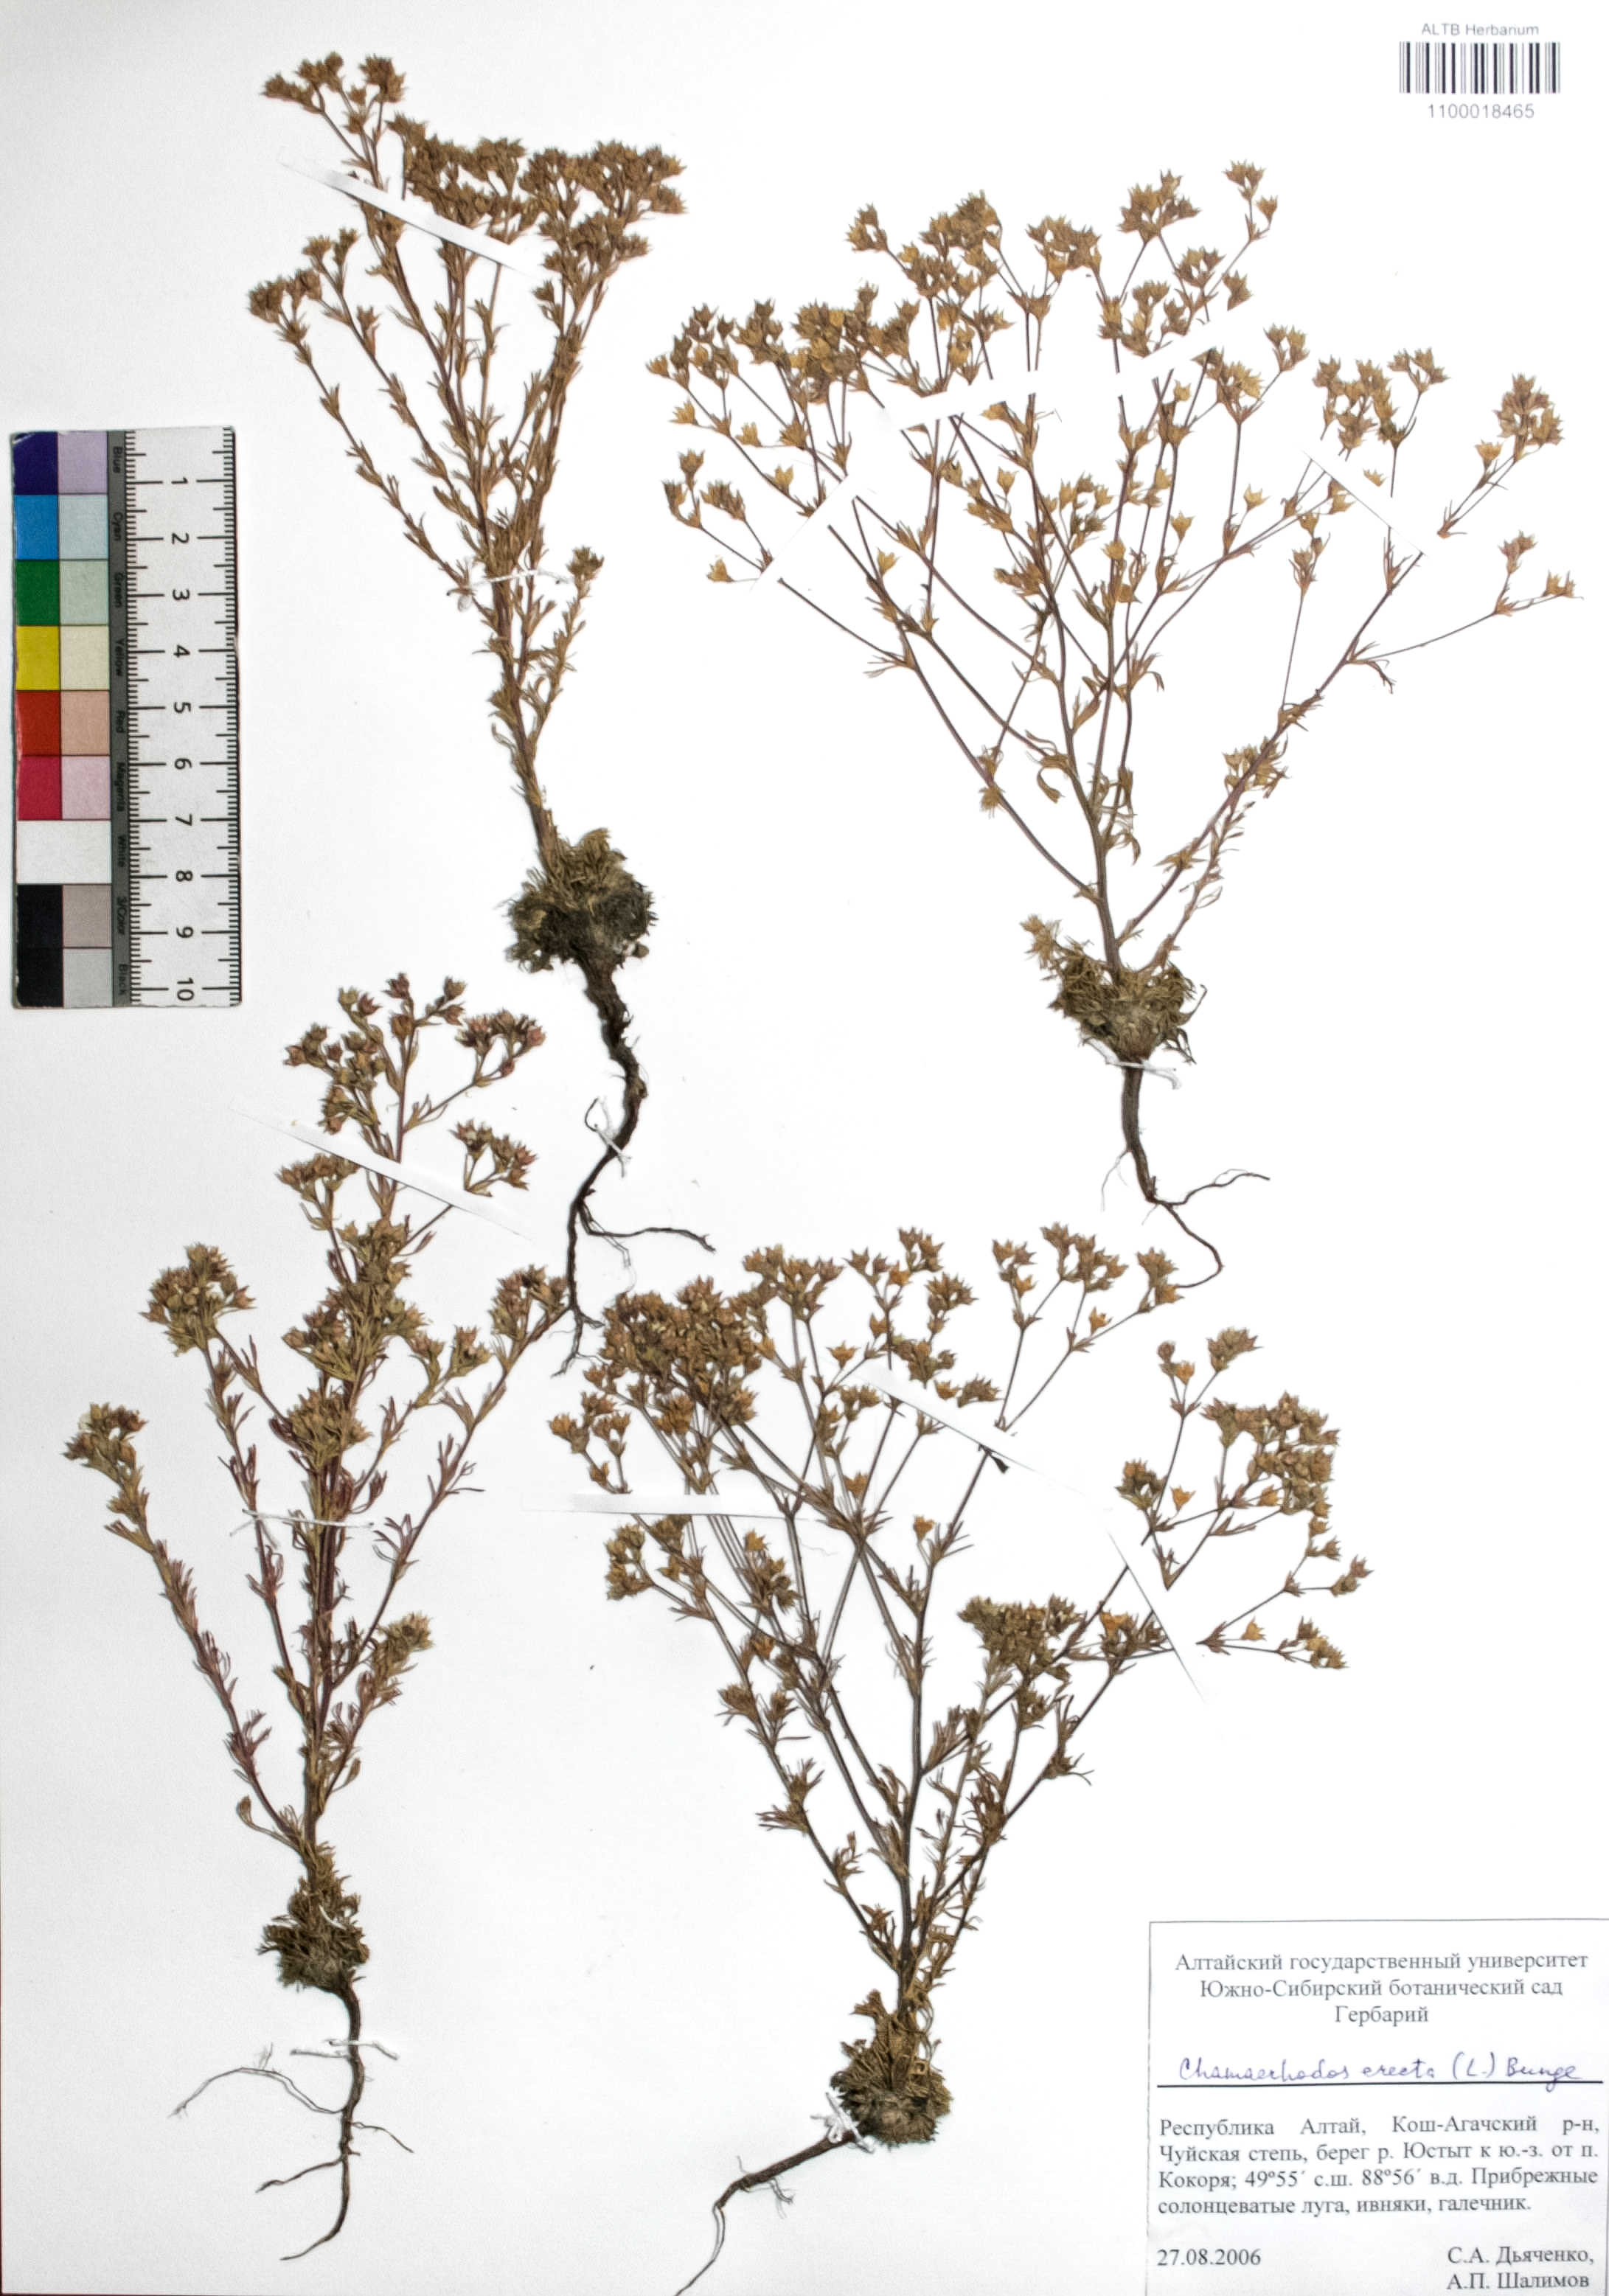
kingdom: Plantae
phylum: Tracheophyta
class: Magnoliopsida
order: Rosales
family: Rosaceae
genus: Chamaerhodos
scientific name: Chamaerhodos erecta
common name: American chamaerhodos
